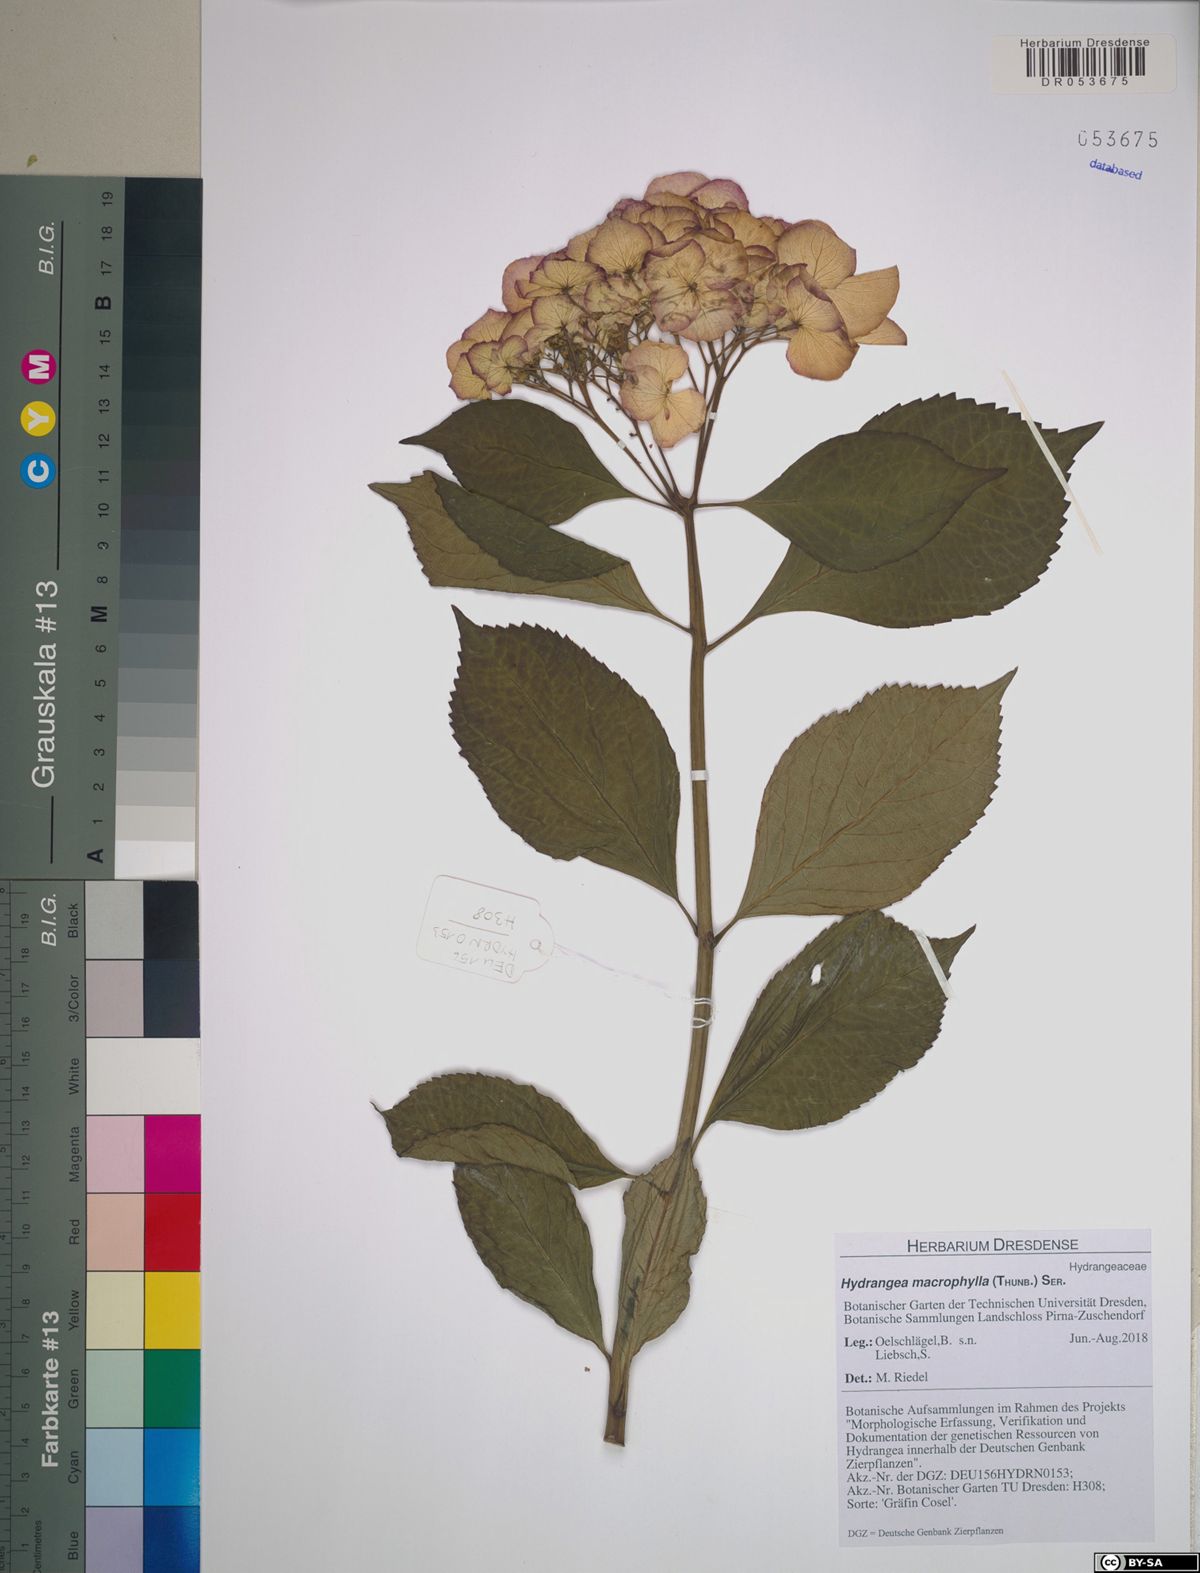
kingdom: Plantae
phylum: Tracheophyta
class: Magnoliopsida
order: Cornales
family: Hydrangeaceae
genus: Hydrangea
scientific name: Hydrangea macrophylla
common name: Hydrangea
